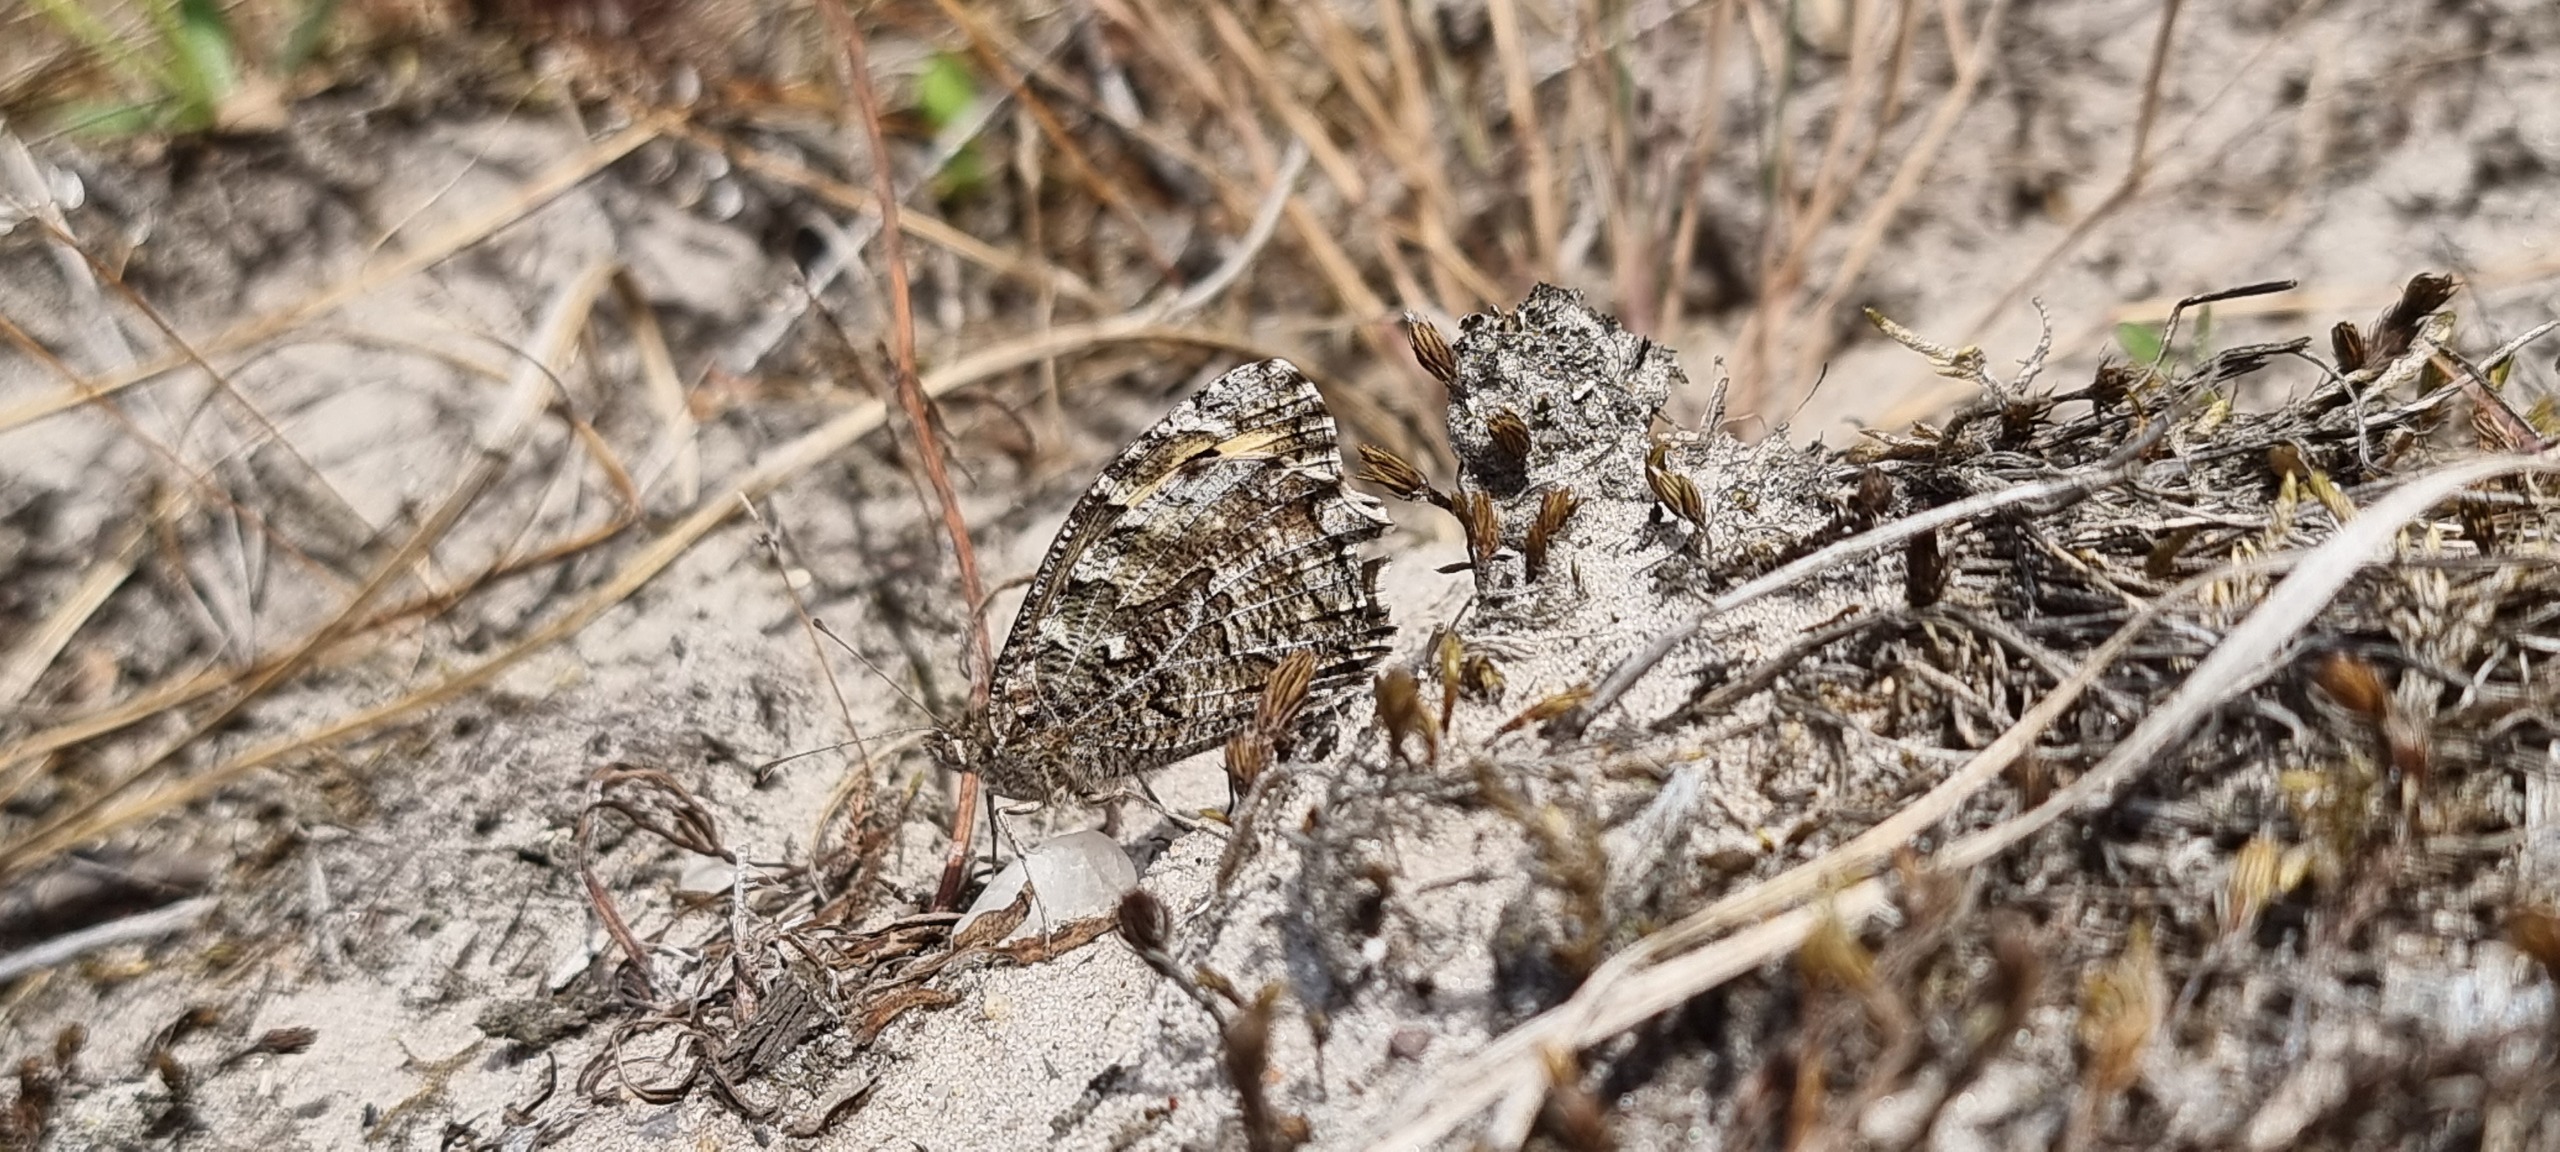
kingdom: Animalia
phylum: Arthropoda
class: Insecta
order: Lepidoptera
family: Nymphalidae
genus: Hipparchia
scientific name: Hipparchia semele
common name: Sandrandøje
